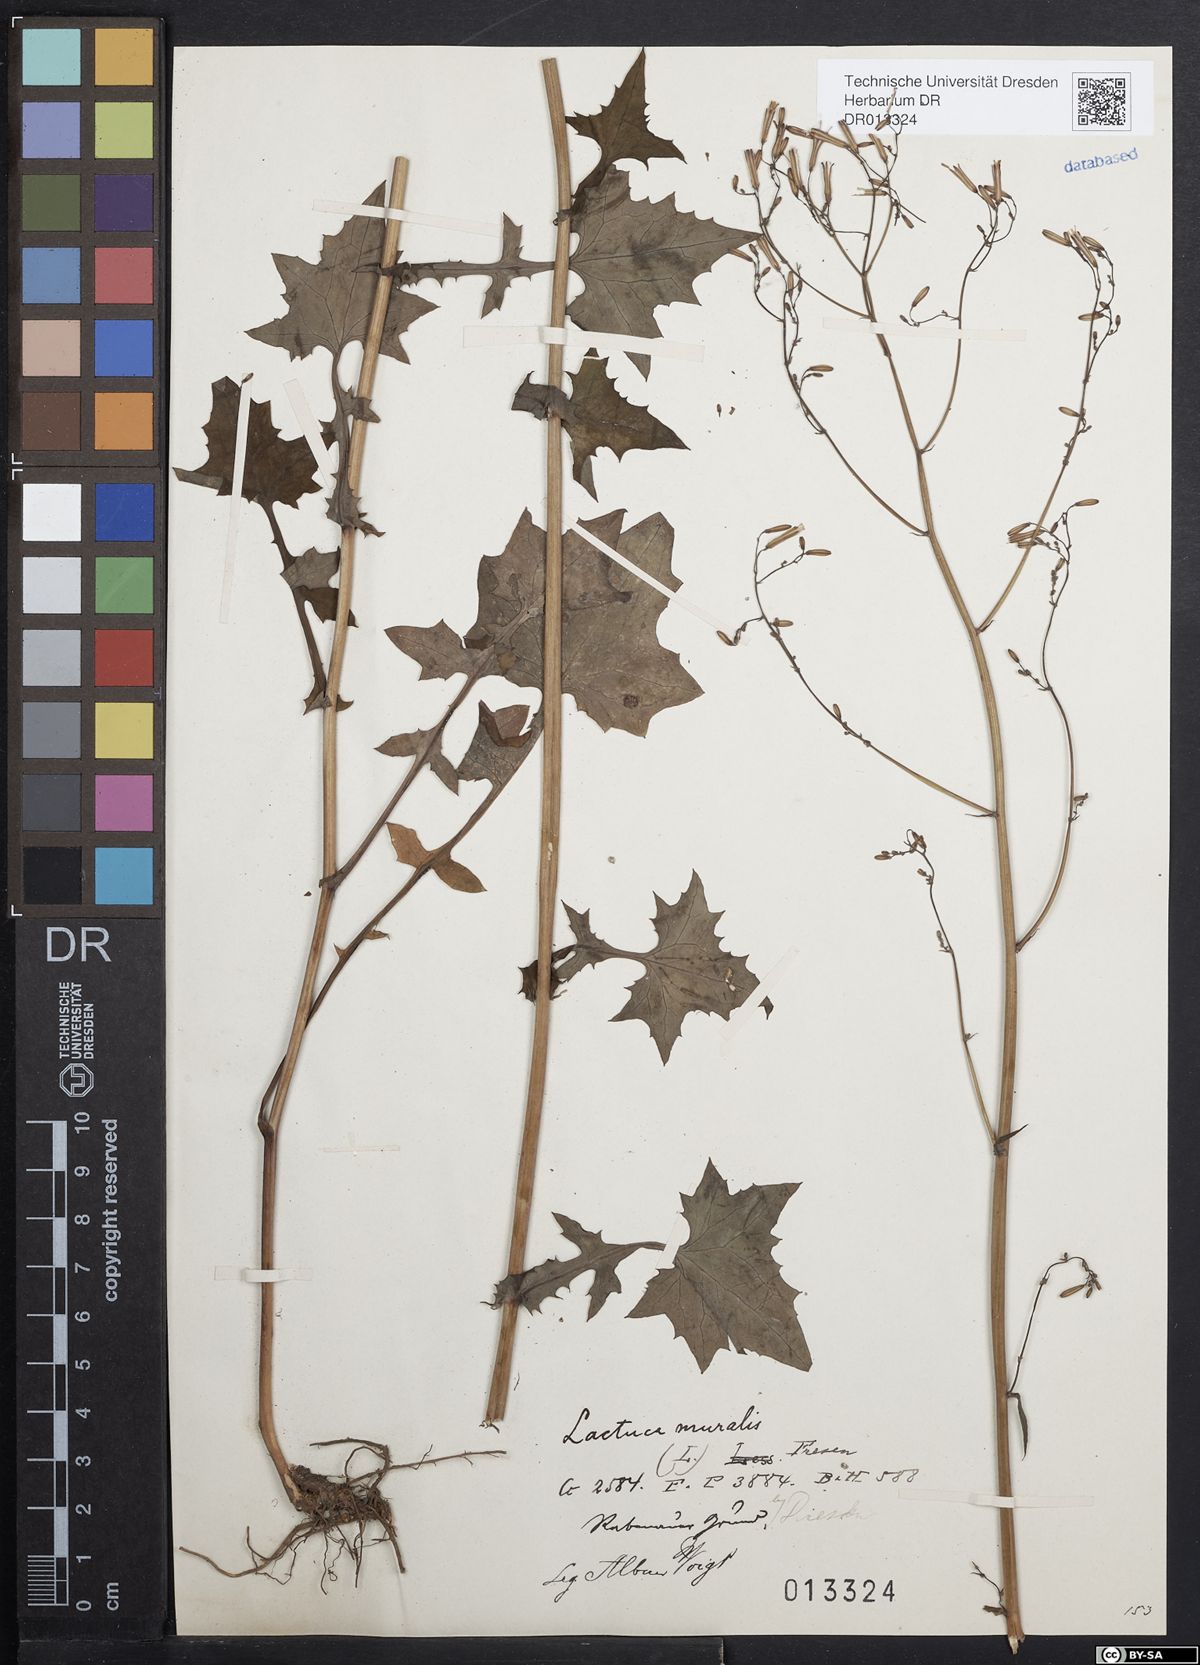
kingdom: Plantae
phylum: Tracheophyta
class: Magnoliopsida
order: Asterales
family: Asteraceae
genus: Mycelis
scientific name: Mycelis muralis
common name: Wall lettuce
